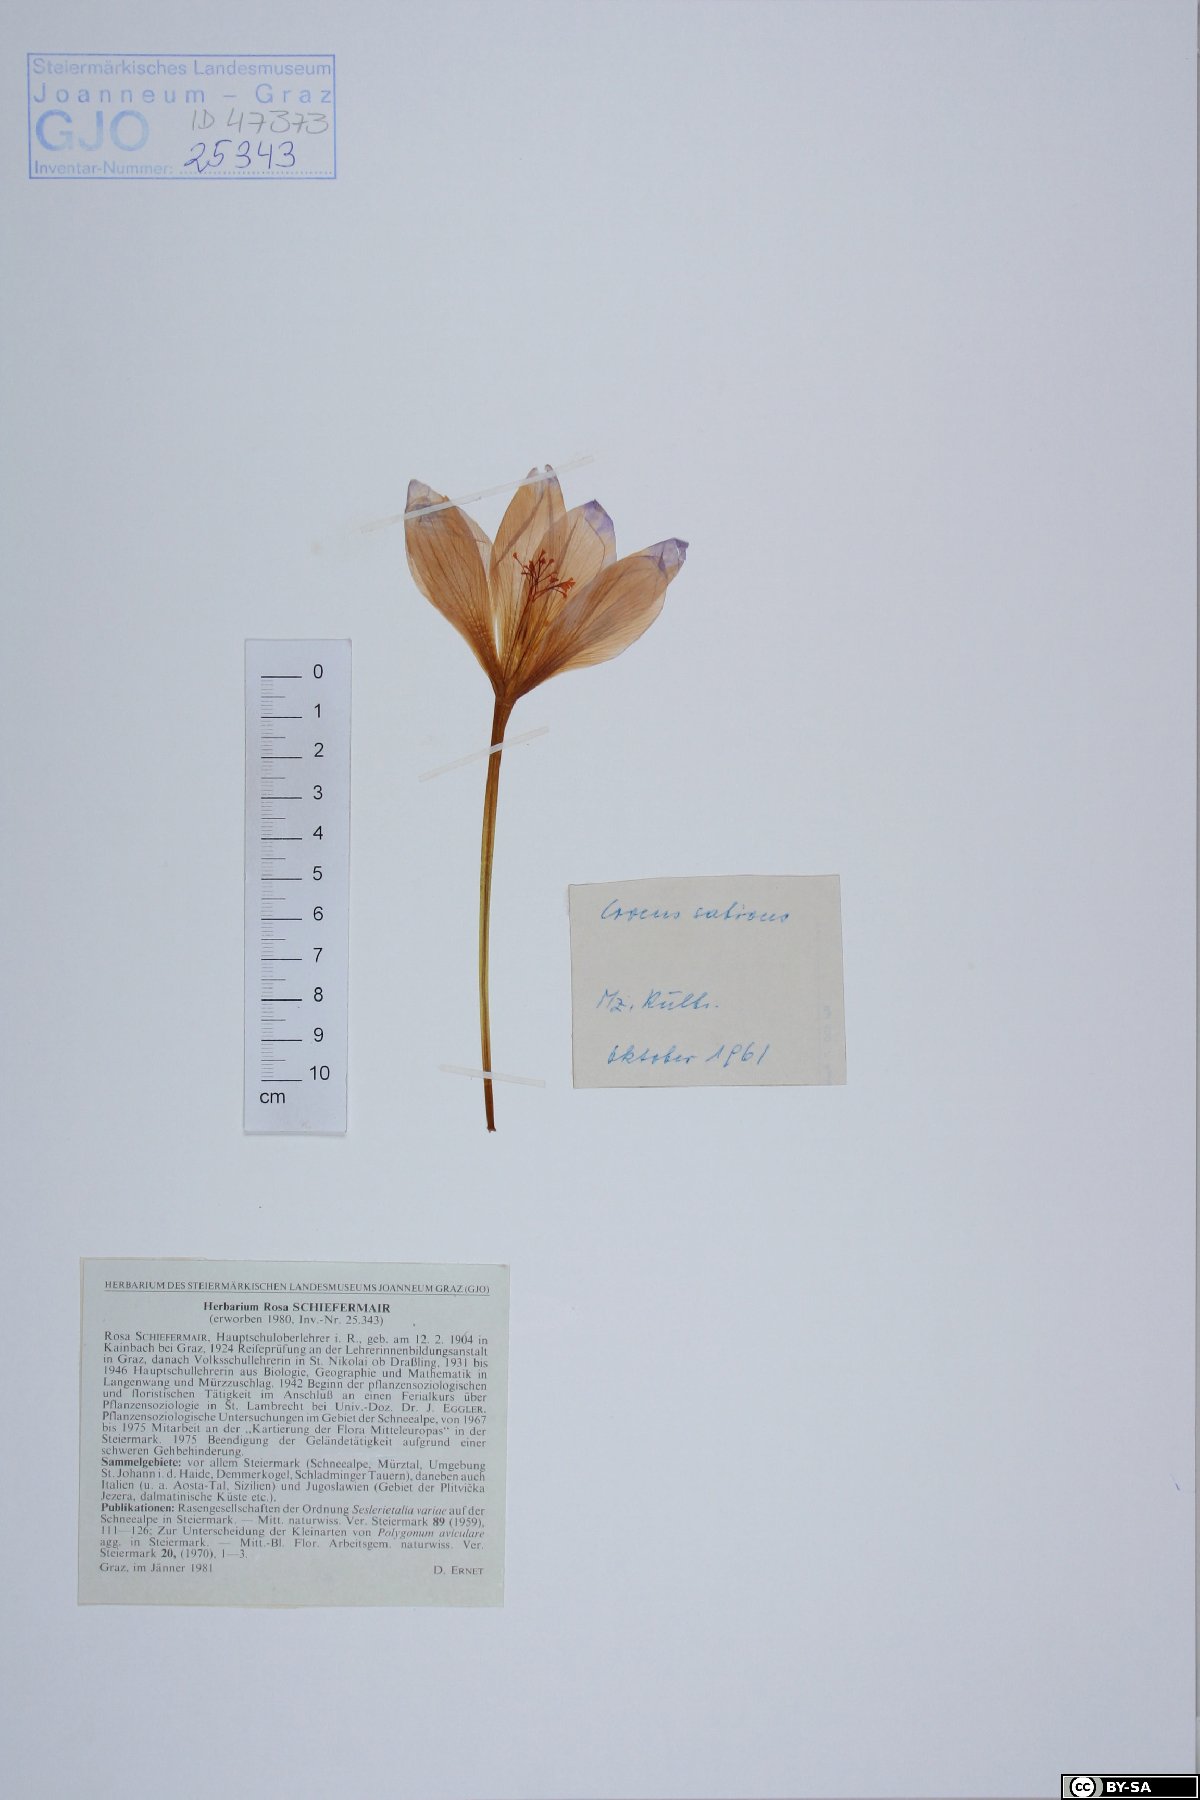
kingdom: Plantae
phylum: Tracheophyta
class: Liliopsida
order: Asparagales
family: Iridaceae
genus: Crocus
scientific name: Crocus sativus
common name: Saffron crocus
